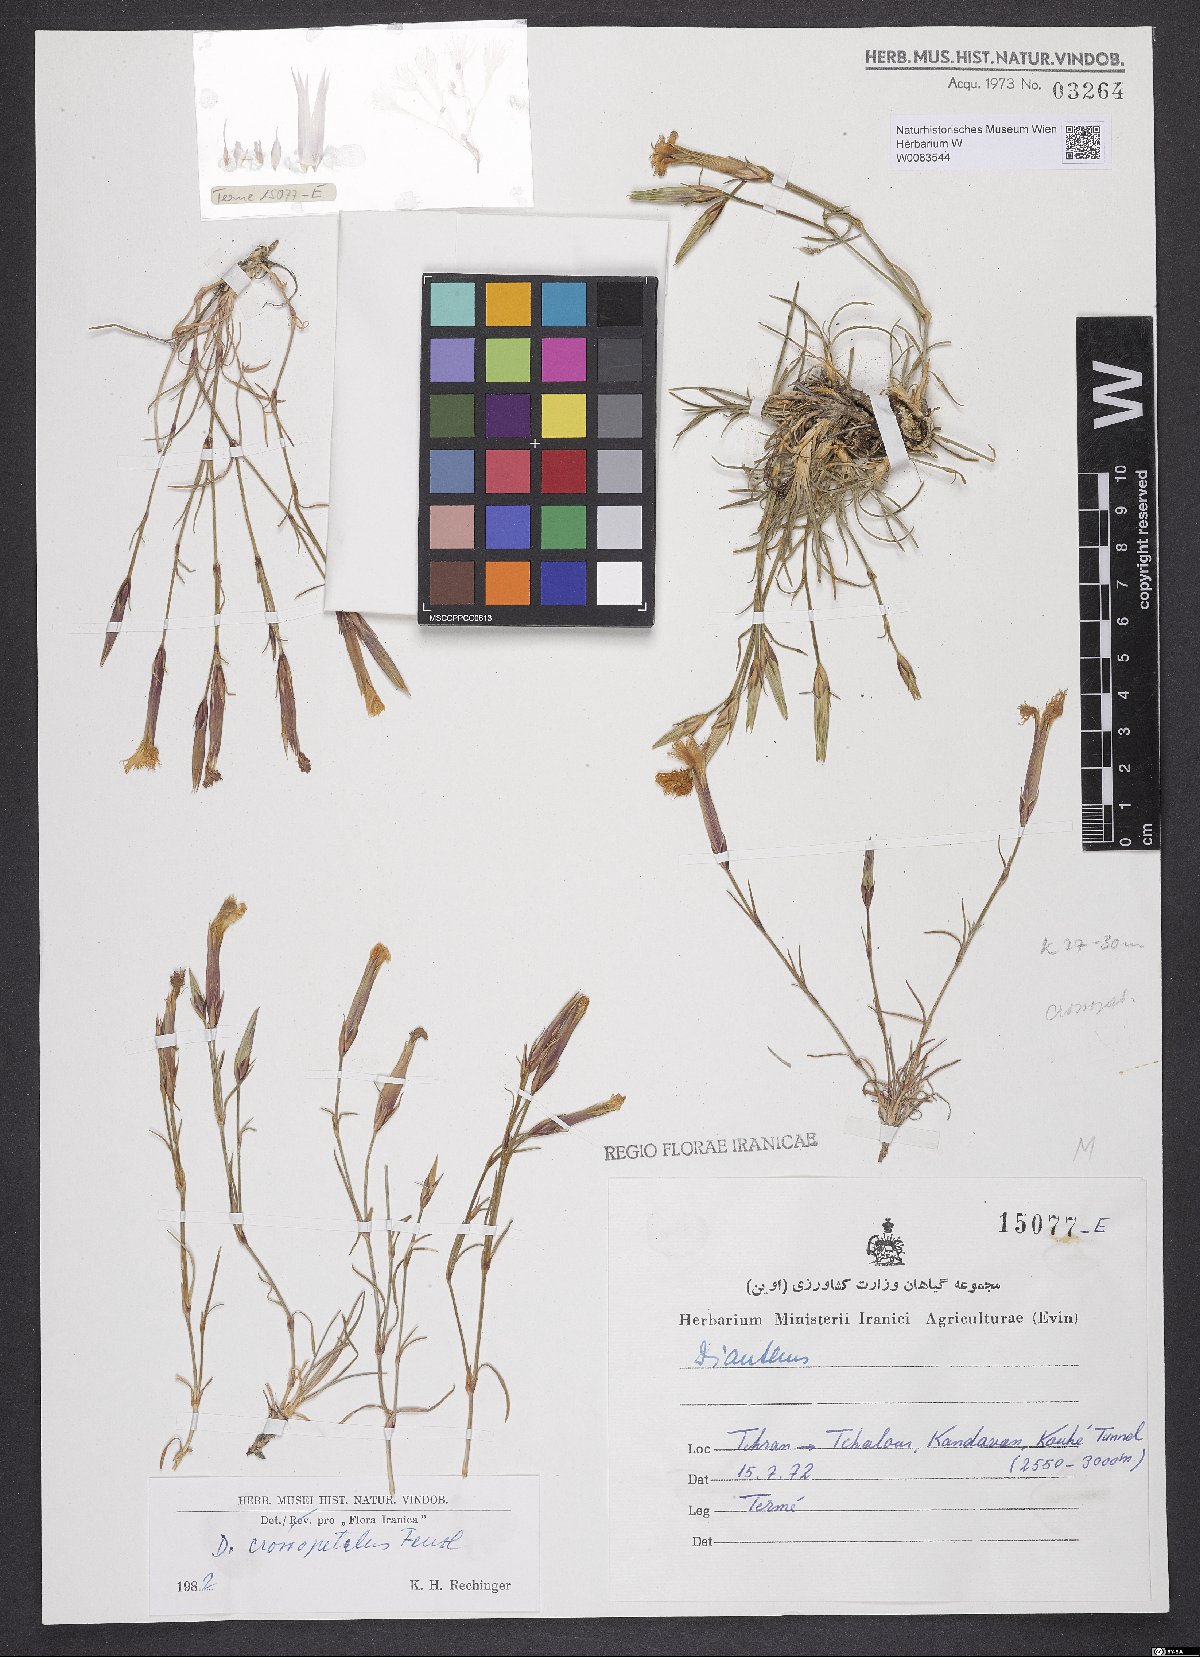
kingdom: Plantae
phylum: Tracheophyta
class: Magnoliopsida
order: Caryophyllales
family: Caryophyllaceae
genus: Dianthus
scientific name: Dianthus crossopetalus
